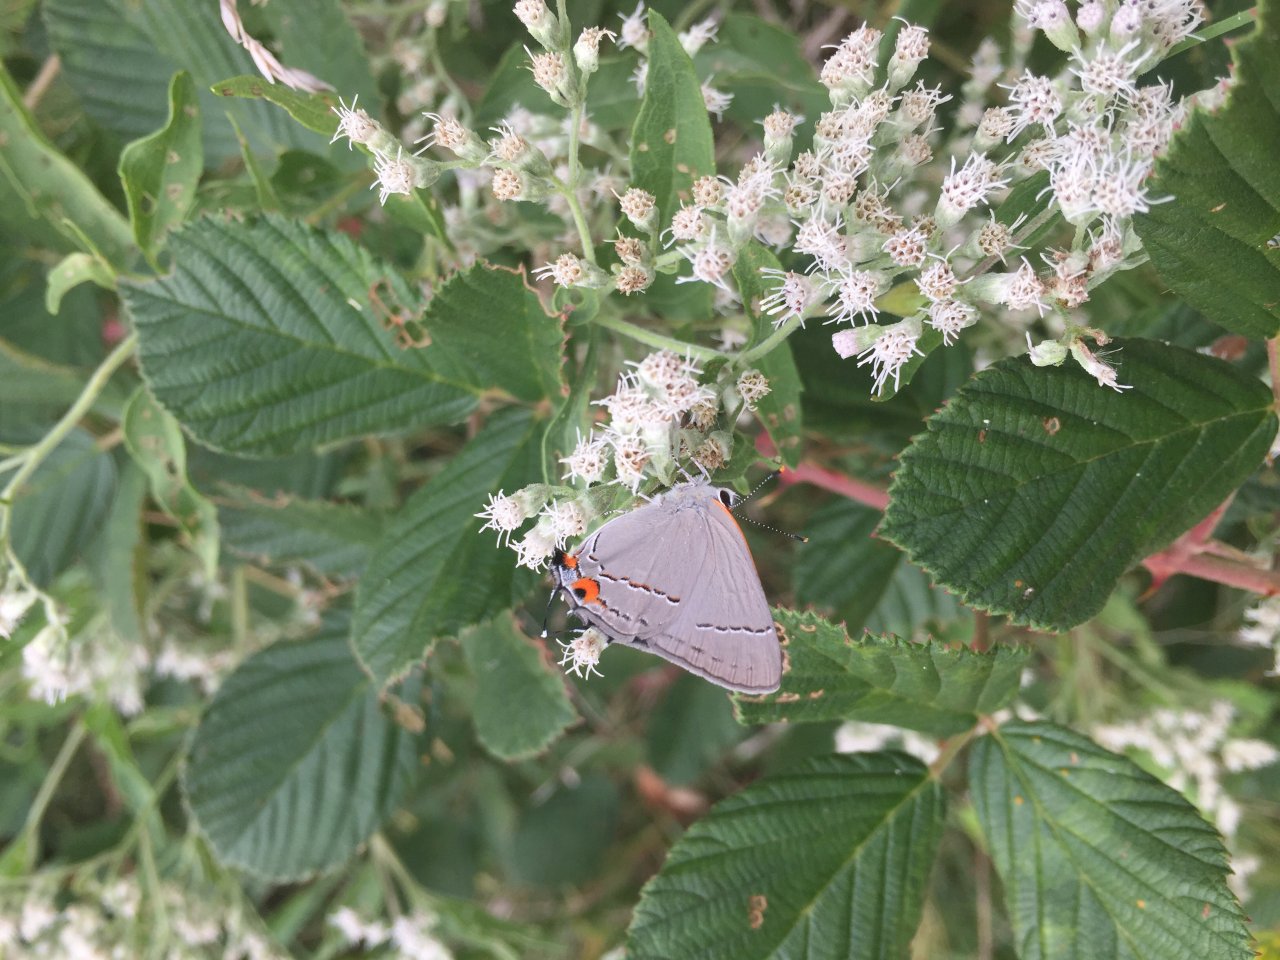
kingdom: Animalia
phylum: Arthropoda
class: Insecta
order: Lepidoptera
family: Lycaenidae
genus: Strymon
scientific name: Strymon melinus
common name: Gray Hairstreak
